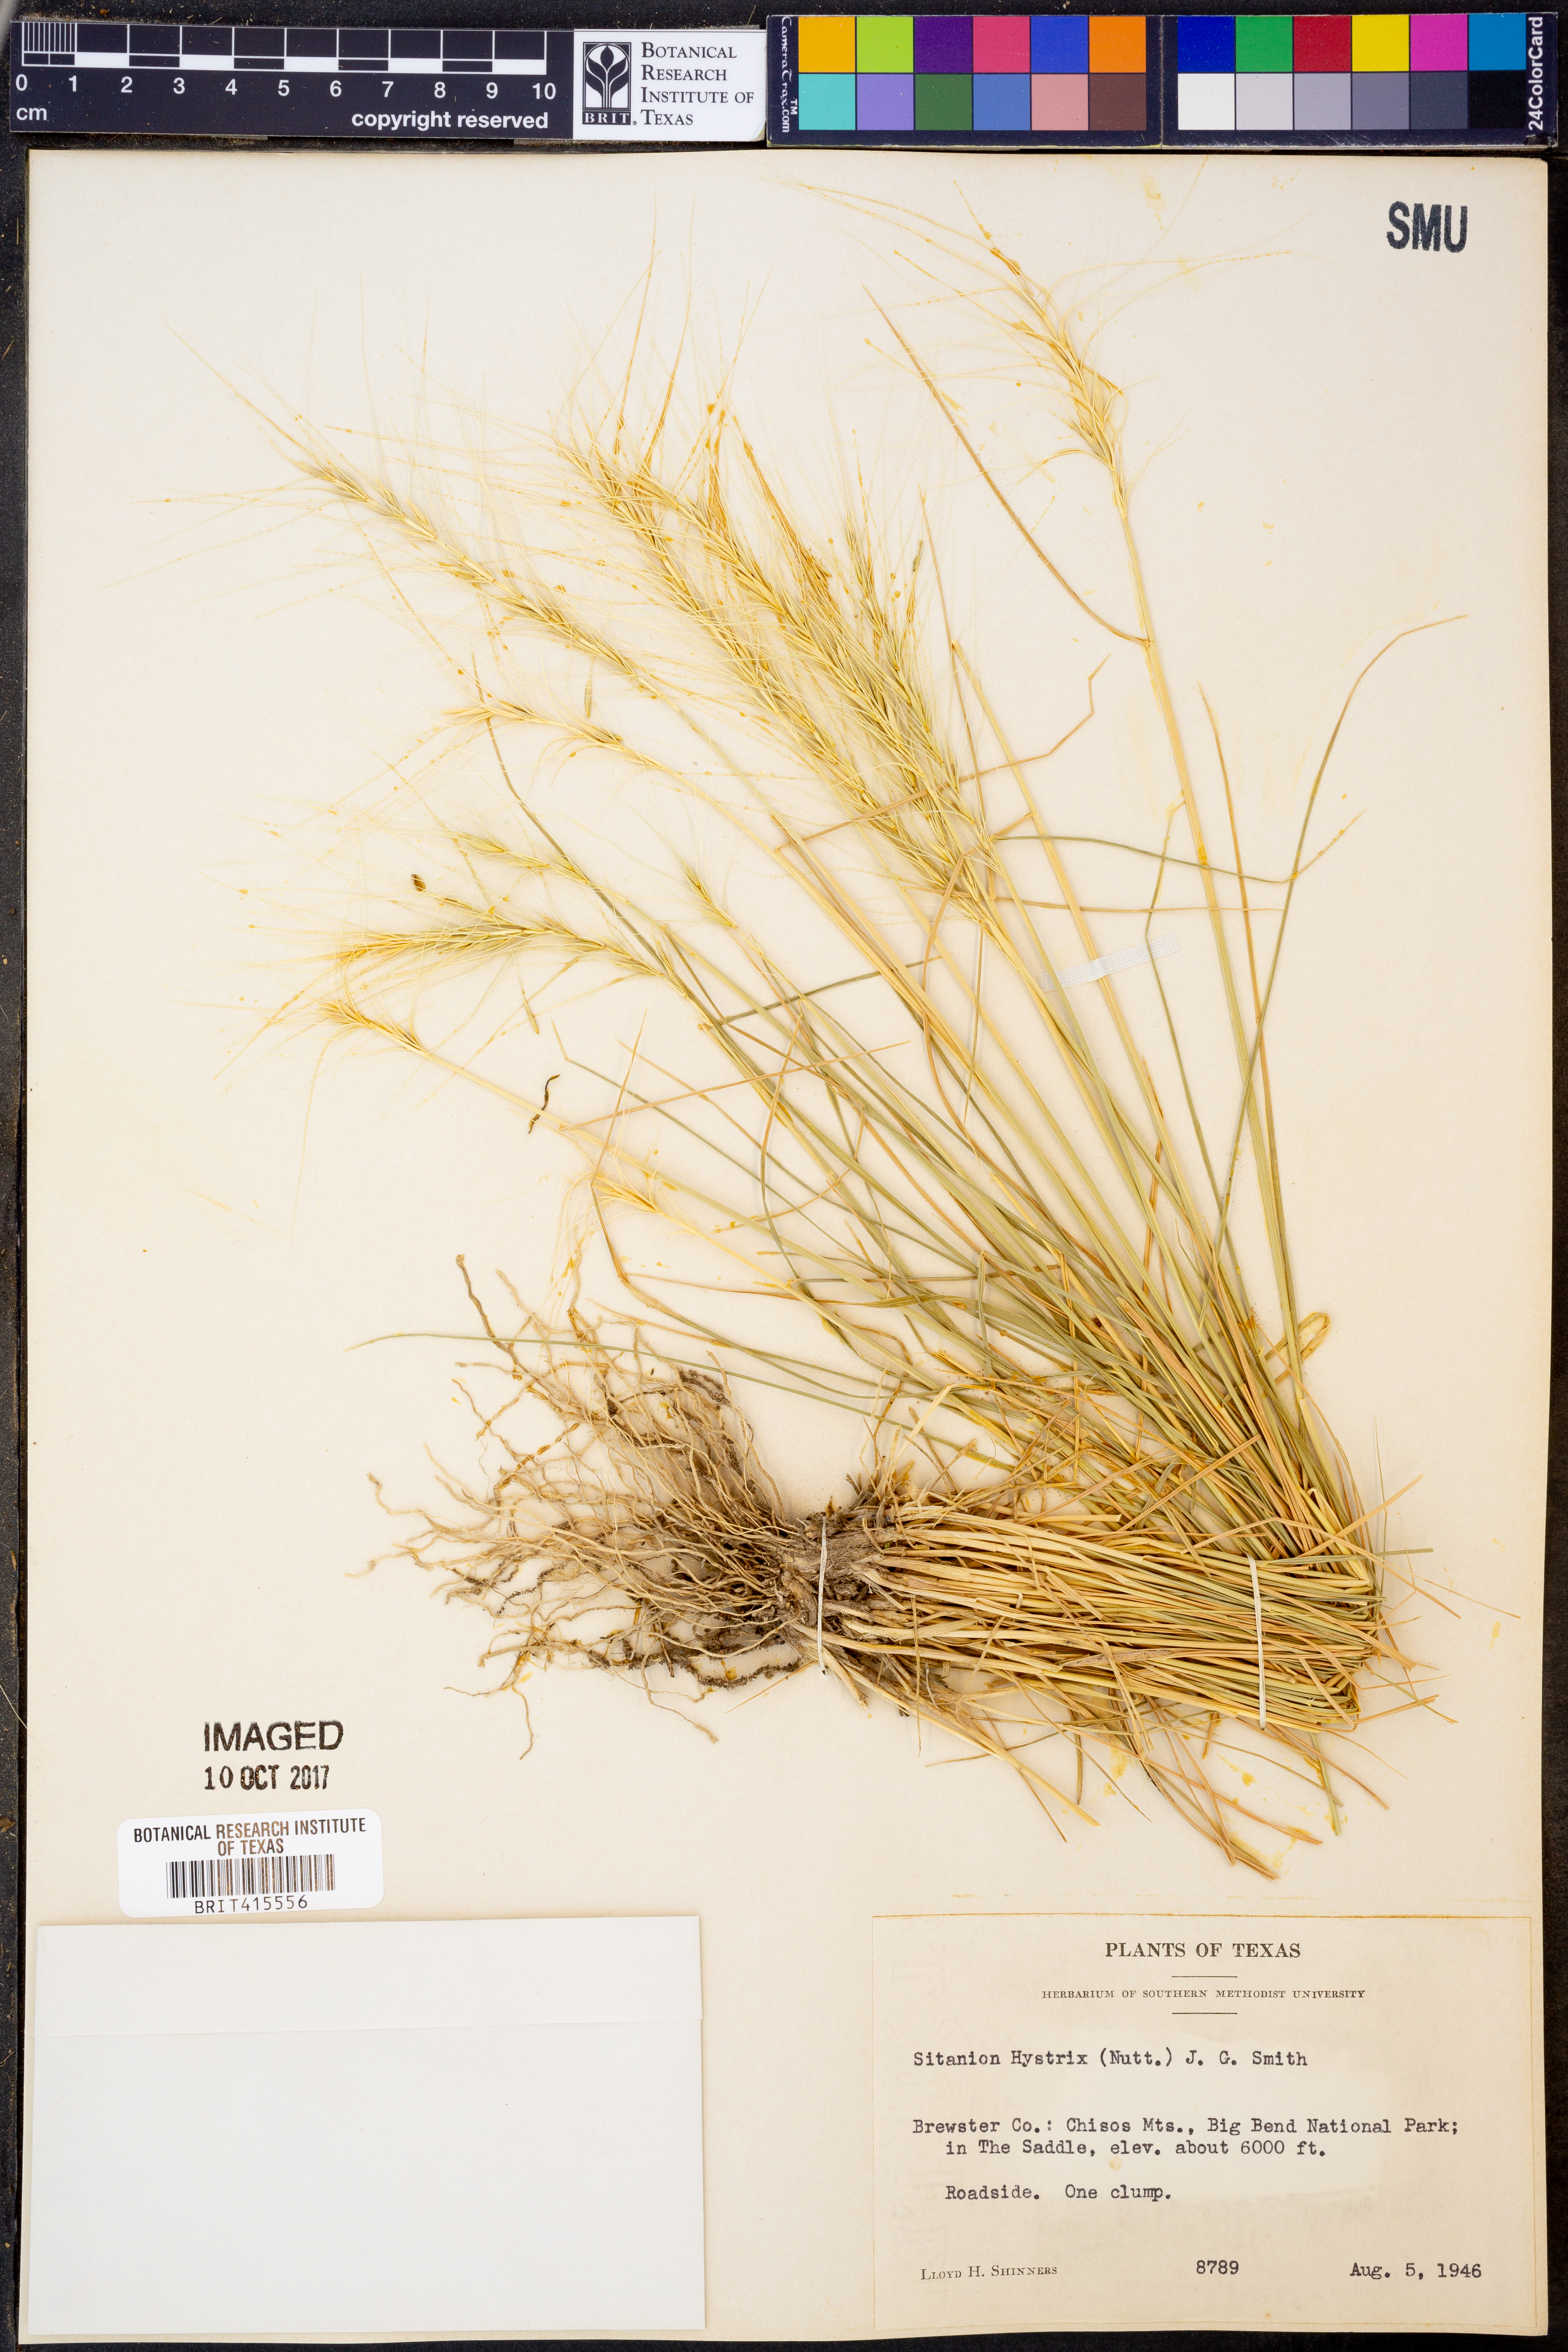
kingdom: Plantae
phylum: Tracheophyta
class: Liliopsida
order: Poales
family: Poaceae
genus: Elymus
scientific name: Elymus elymoides
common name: Bottlebrush squirreltail
